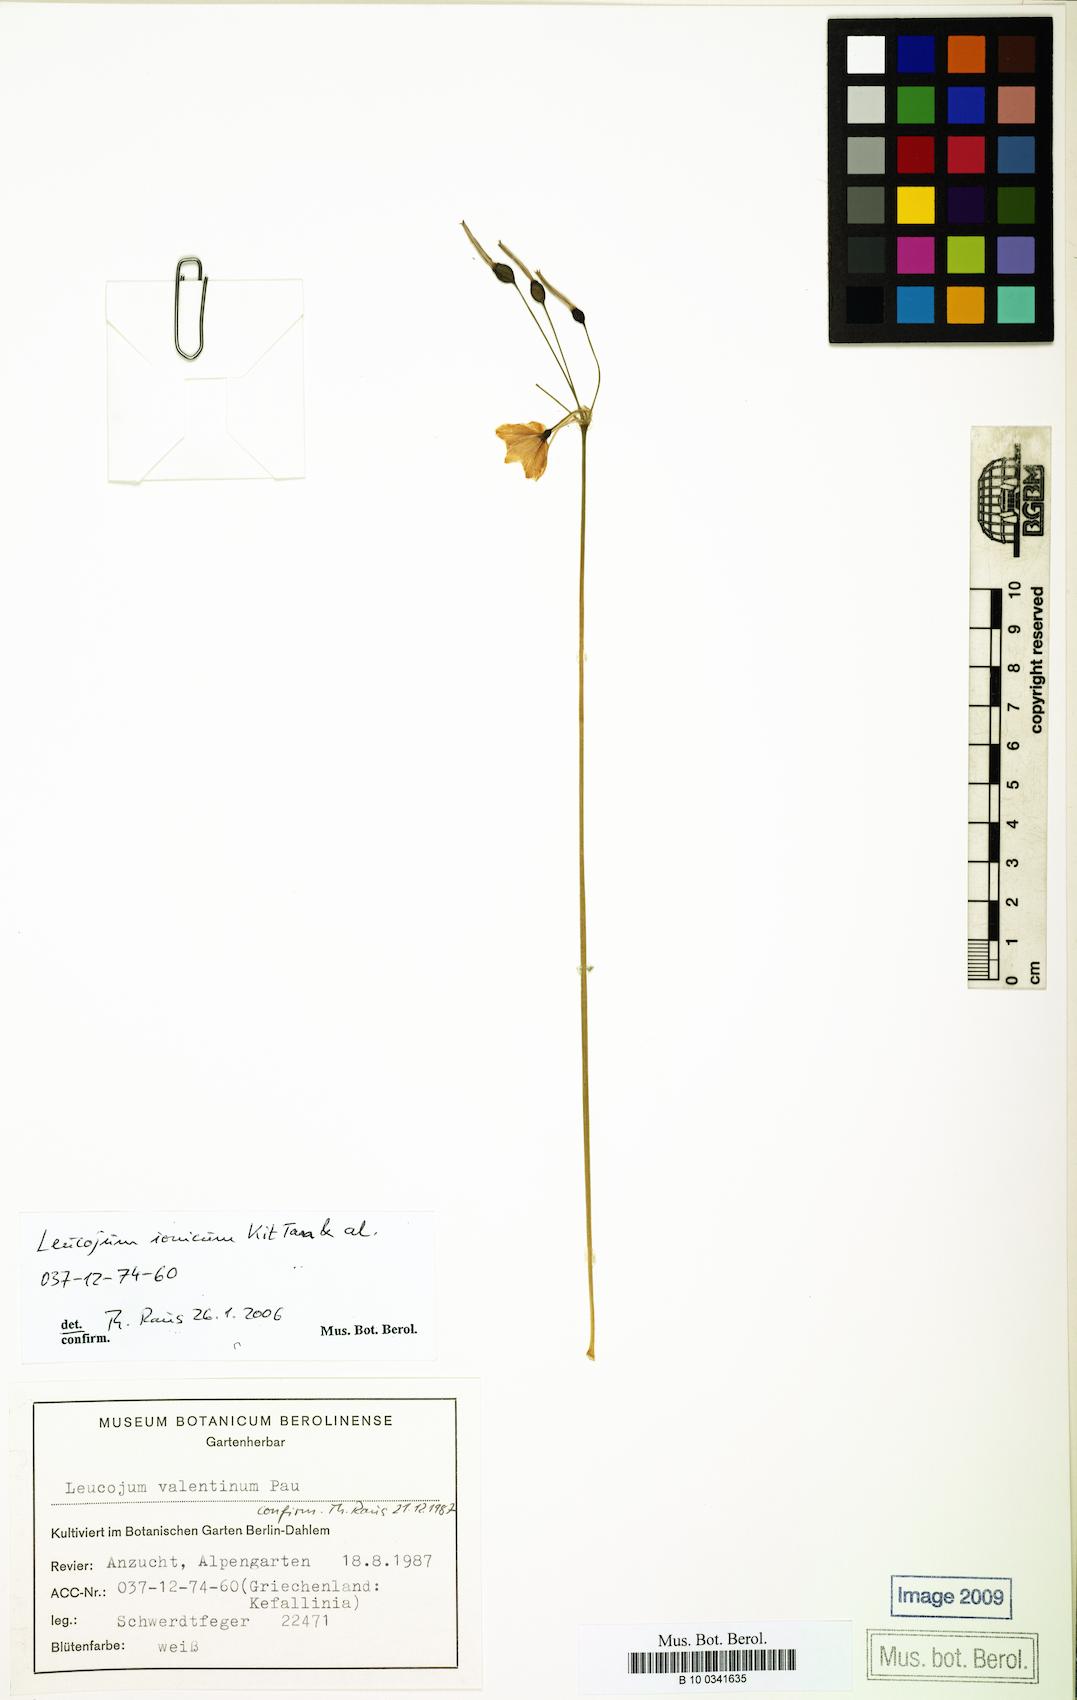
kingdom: Plantae
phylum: Tracheophyta
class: Liliopsida
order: Asparagales
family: Amaryllidaceae
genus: Acis
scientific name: Acis ionica
